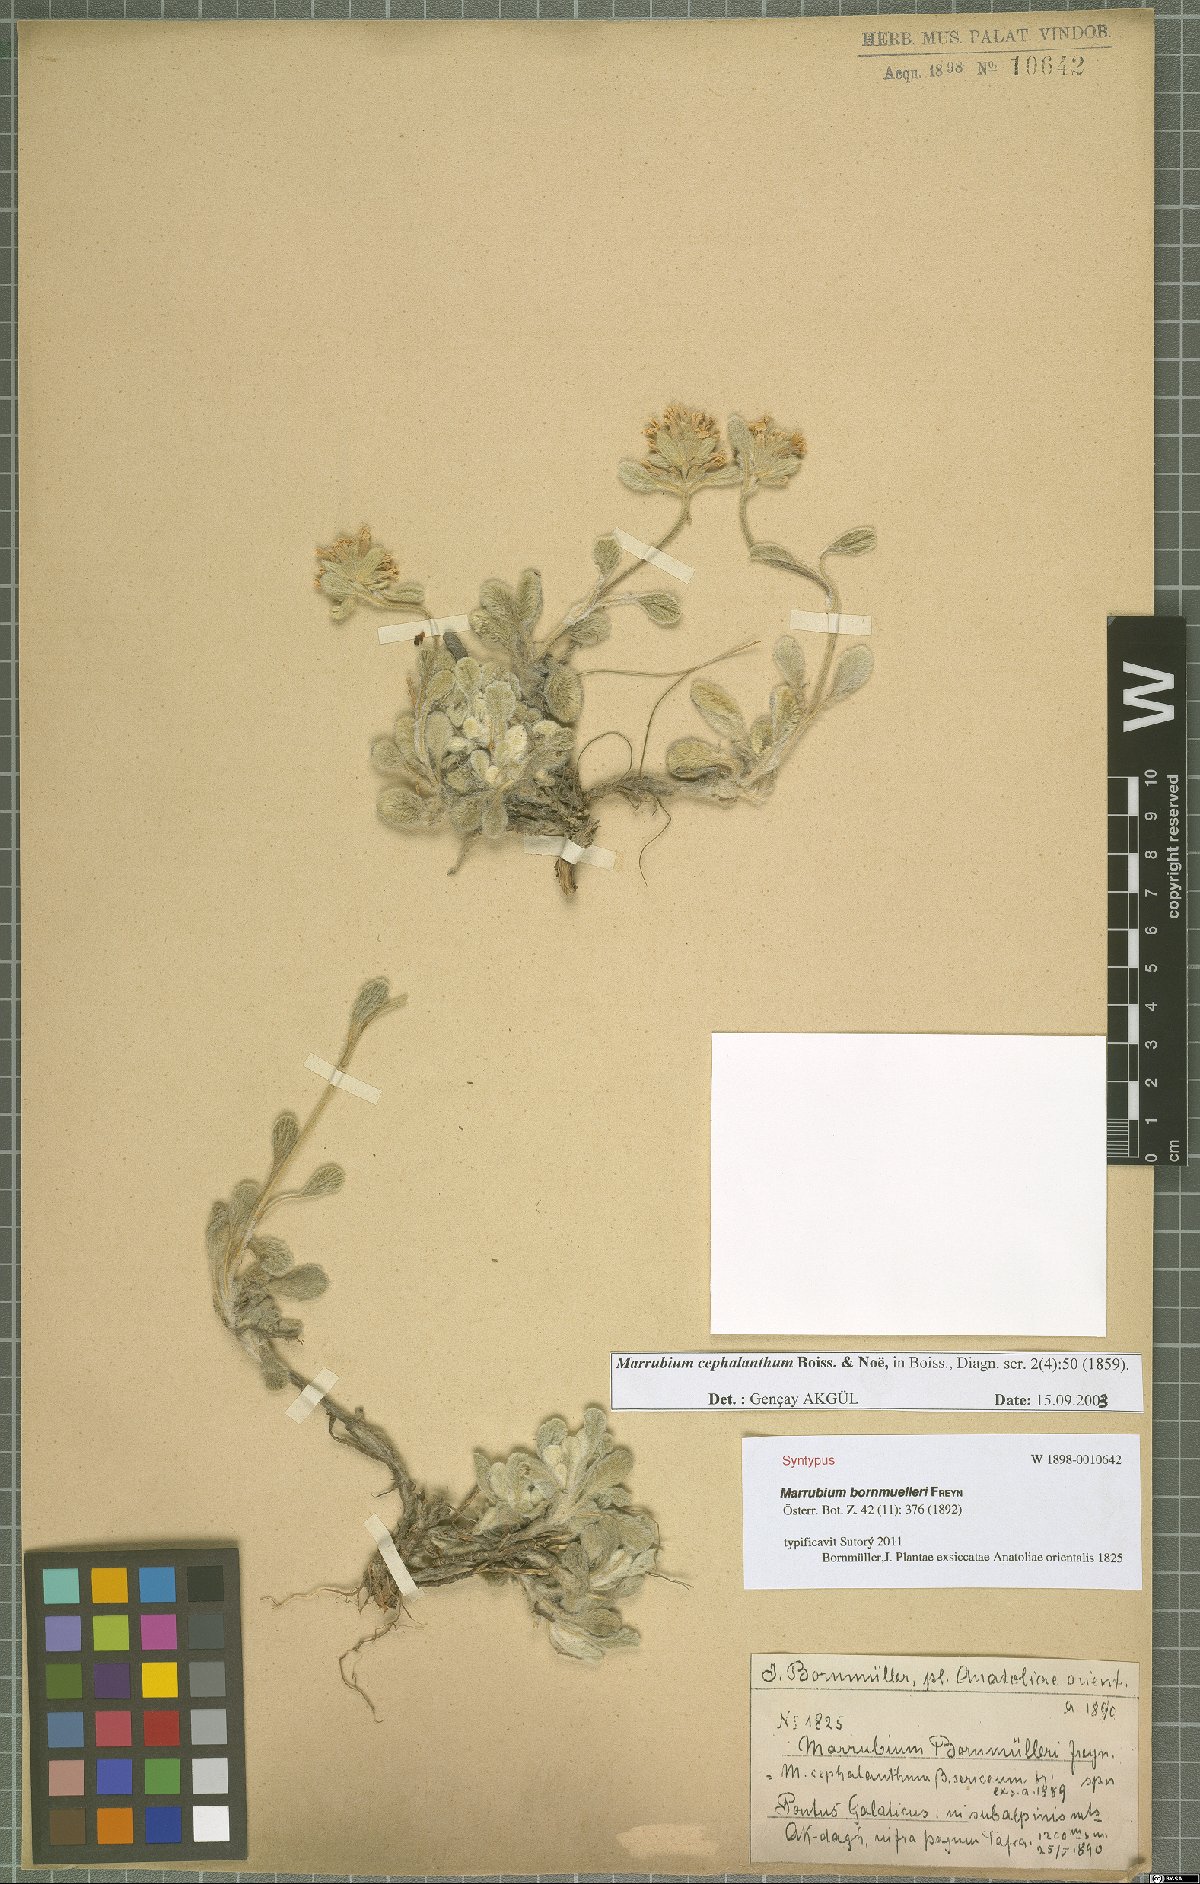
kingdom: Plantae
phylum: Tracheophyta
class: Magnoliopsida
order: Lamiales
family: Lamiaceae
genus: Marrubium
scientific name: Marrubium cephalanthum
